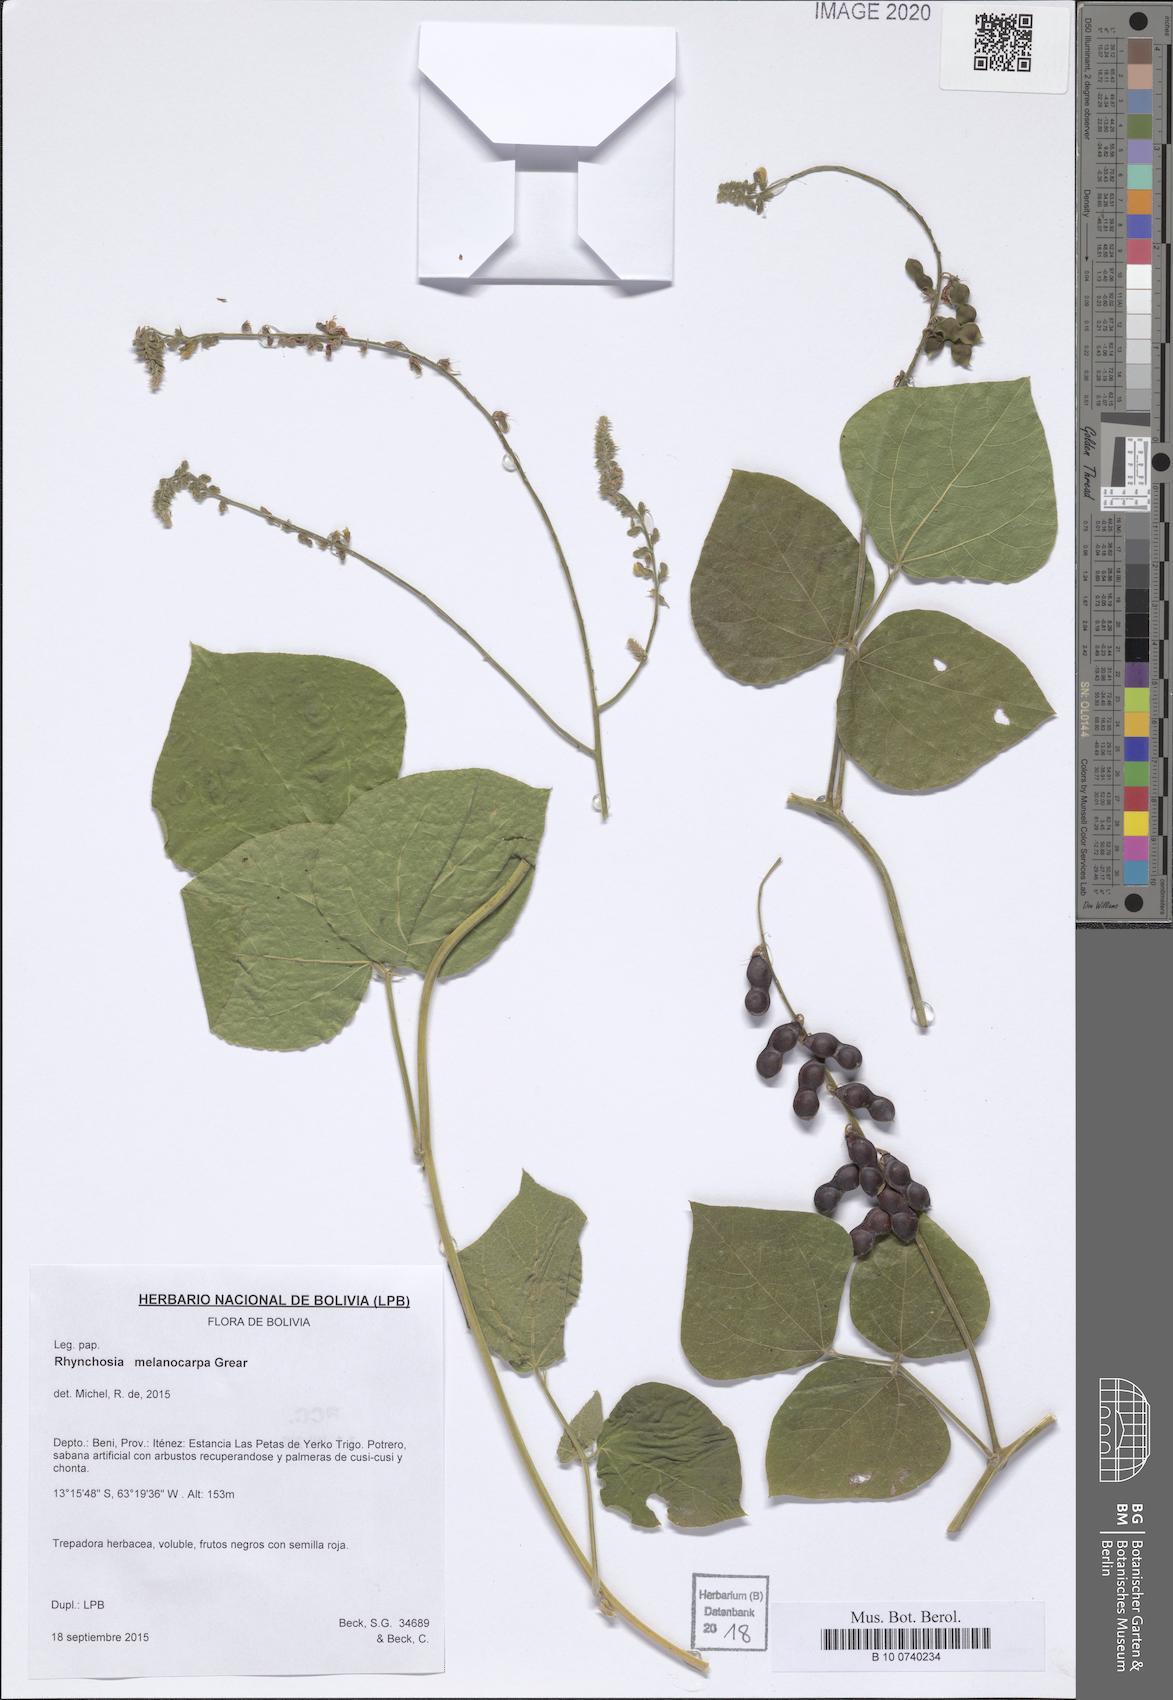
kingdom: Plantae
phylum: Tracheophyta
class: Magnoliopsida
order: Fabales
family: Fabaceae
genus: Rhynchosia
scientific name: Rhynchosia melanocarpa
